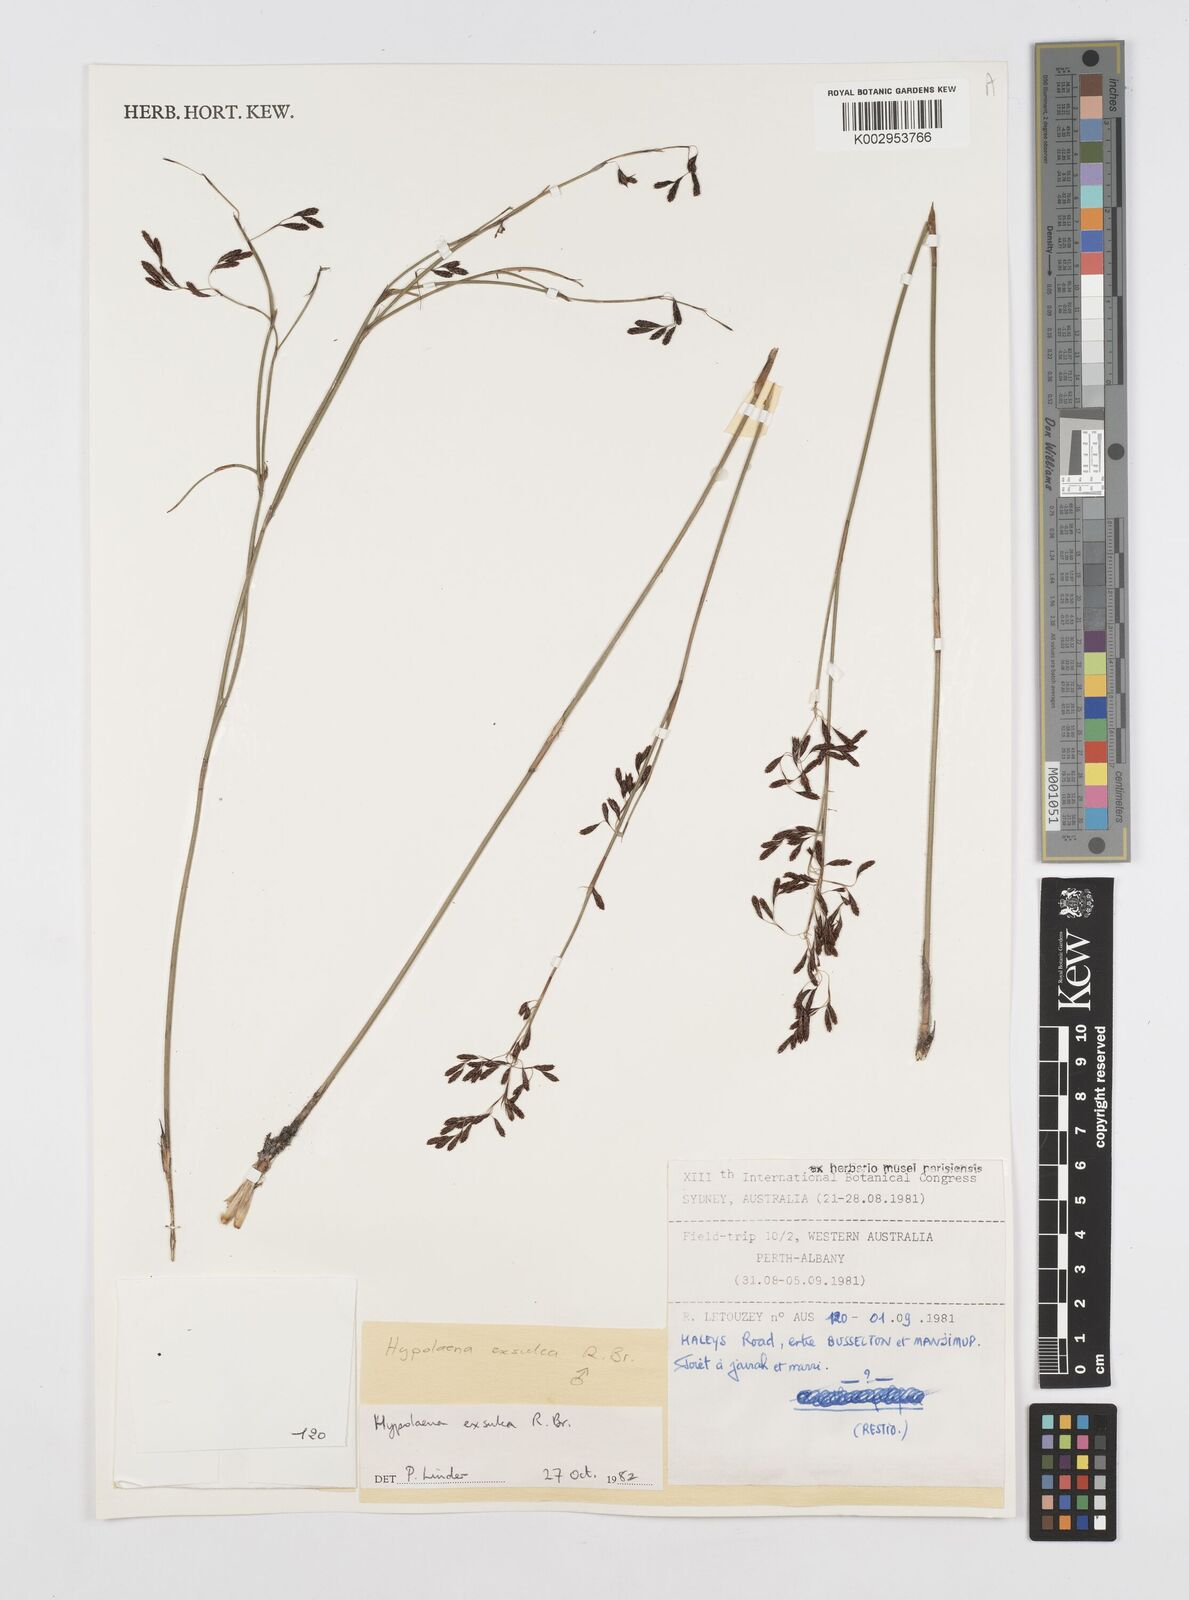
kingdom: Plantae
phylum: Tracheophyta
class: Liliopsida
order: Poales
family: Restionaceae
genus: Hypolaena
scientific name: Hypolaena exsulca
